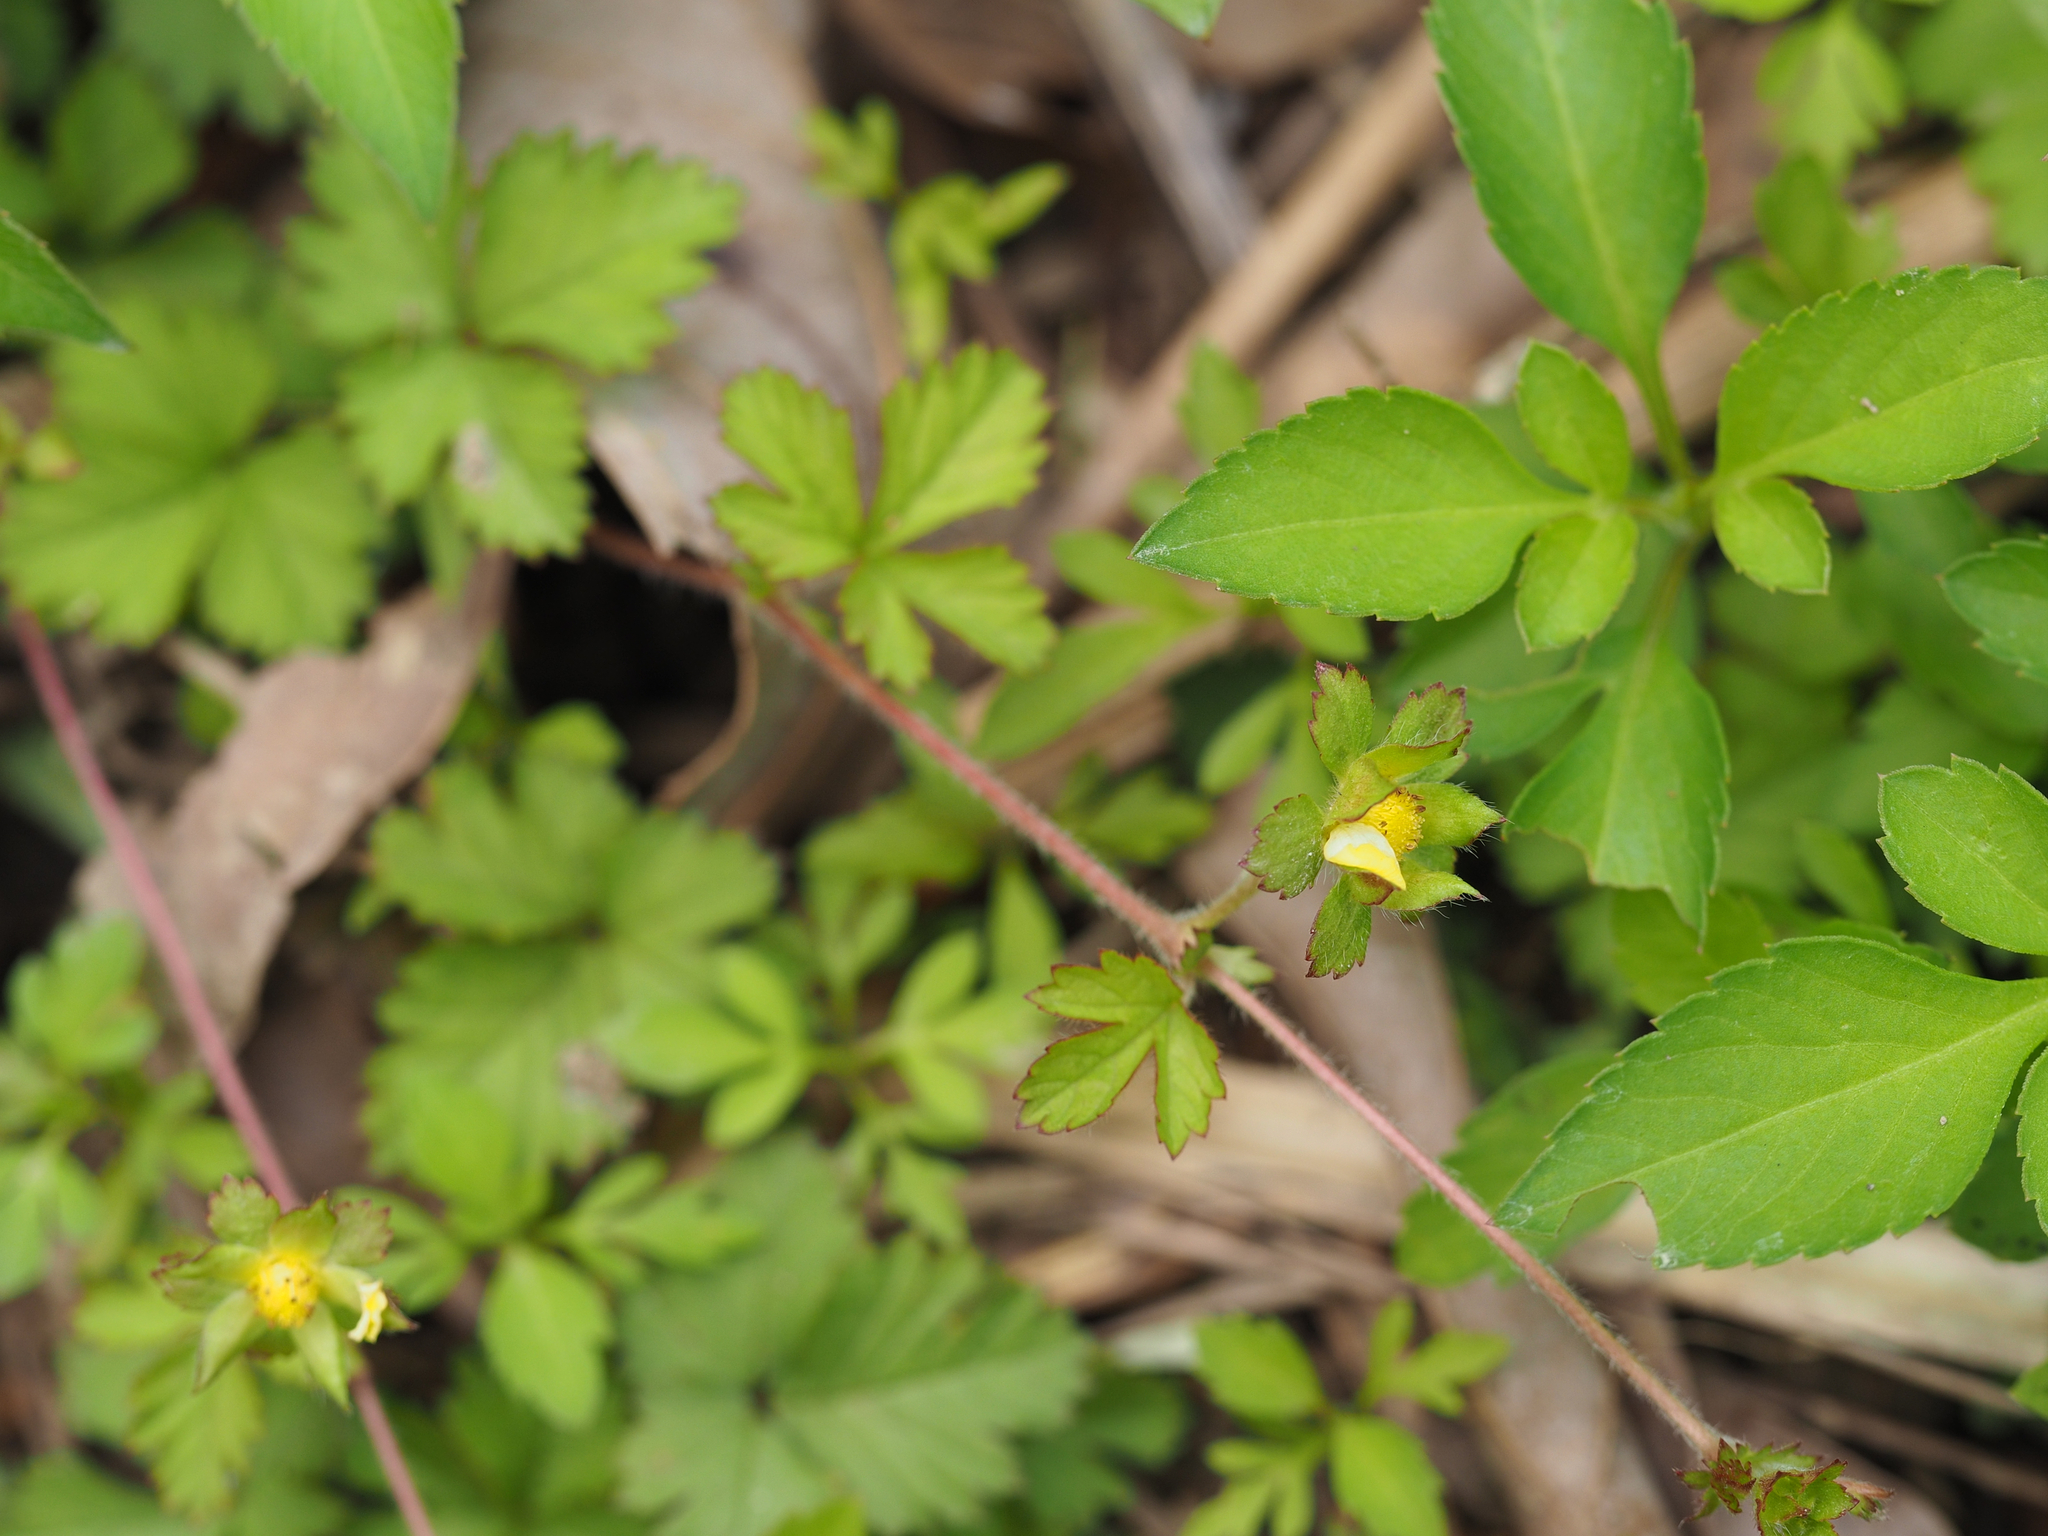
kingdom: Plantae
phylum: Tracheophyta
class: Magnoliopsida
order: Rosales
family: Rosaceae
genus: Potentilla
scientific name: Potentilla wallichiana
